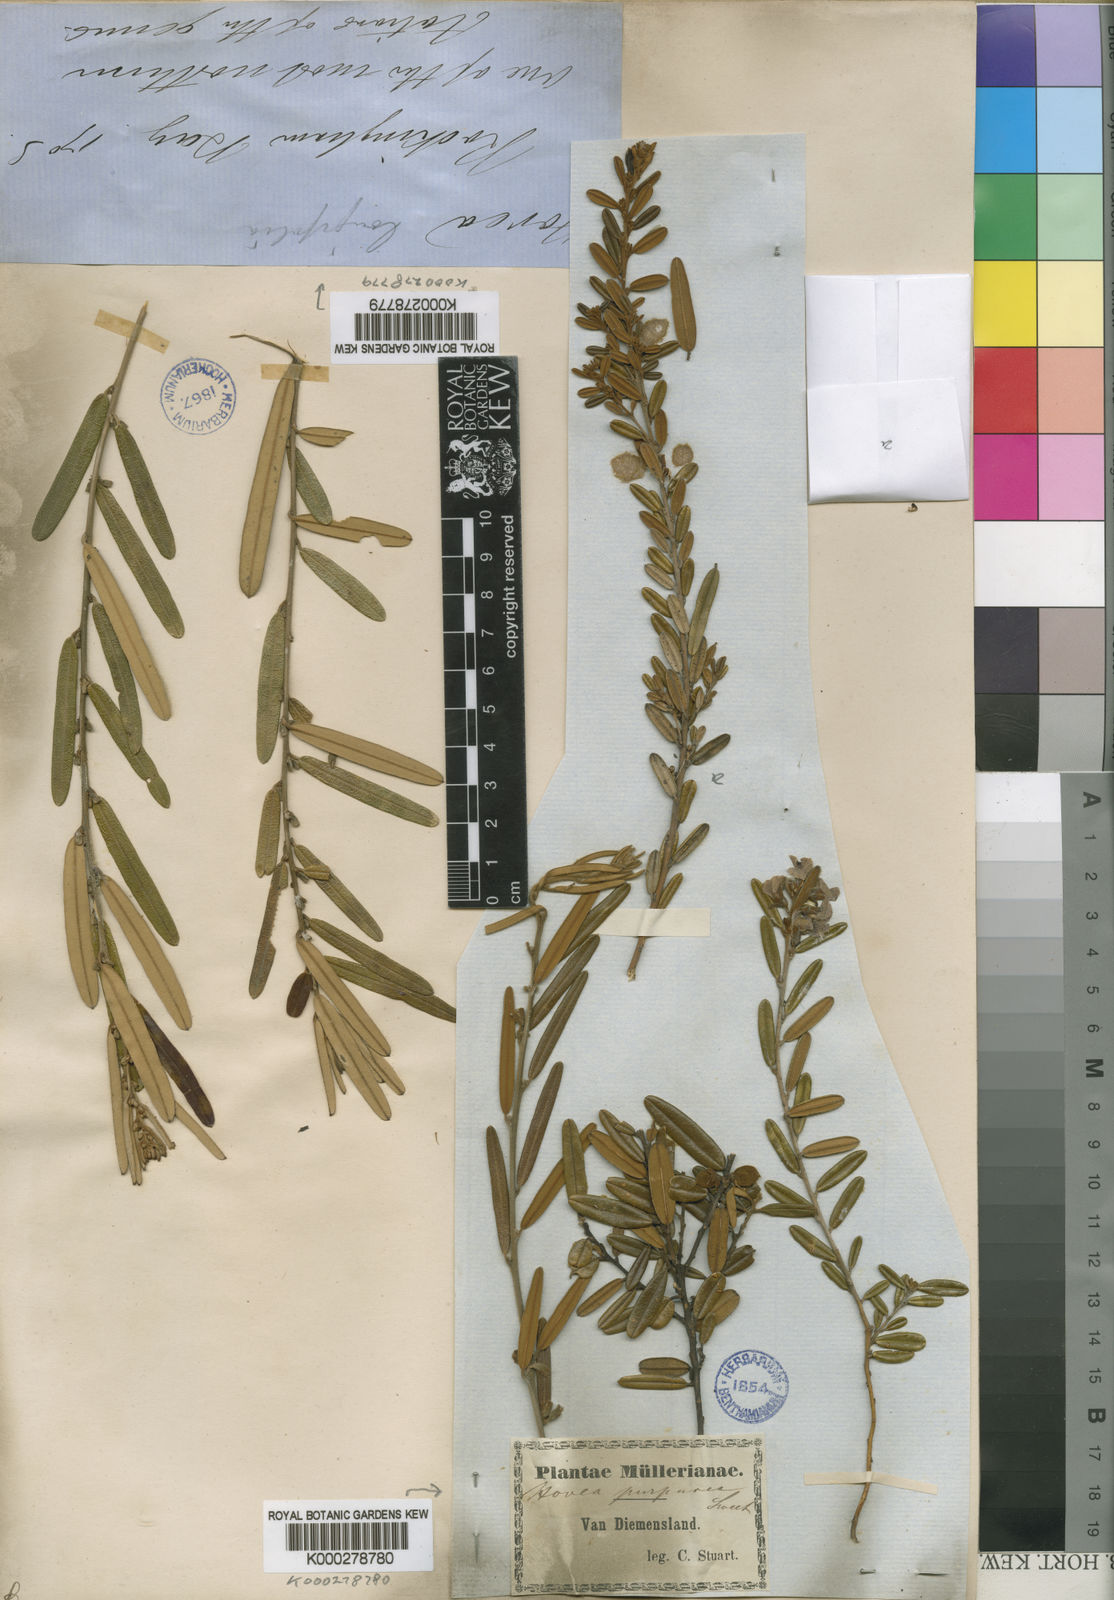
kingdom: Plantae
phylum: Tracheophyta
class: Magnoliopsida
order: Fabales
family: Fabaceae
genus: Hovea
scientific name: Hovea purpurea
